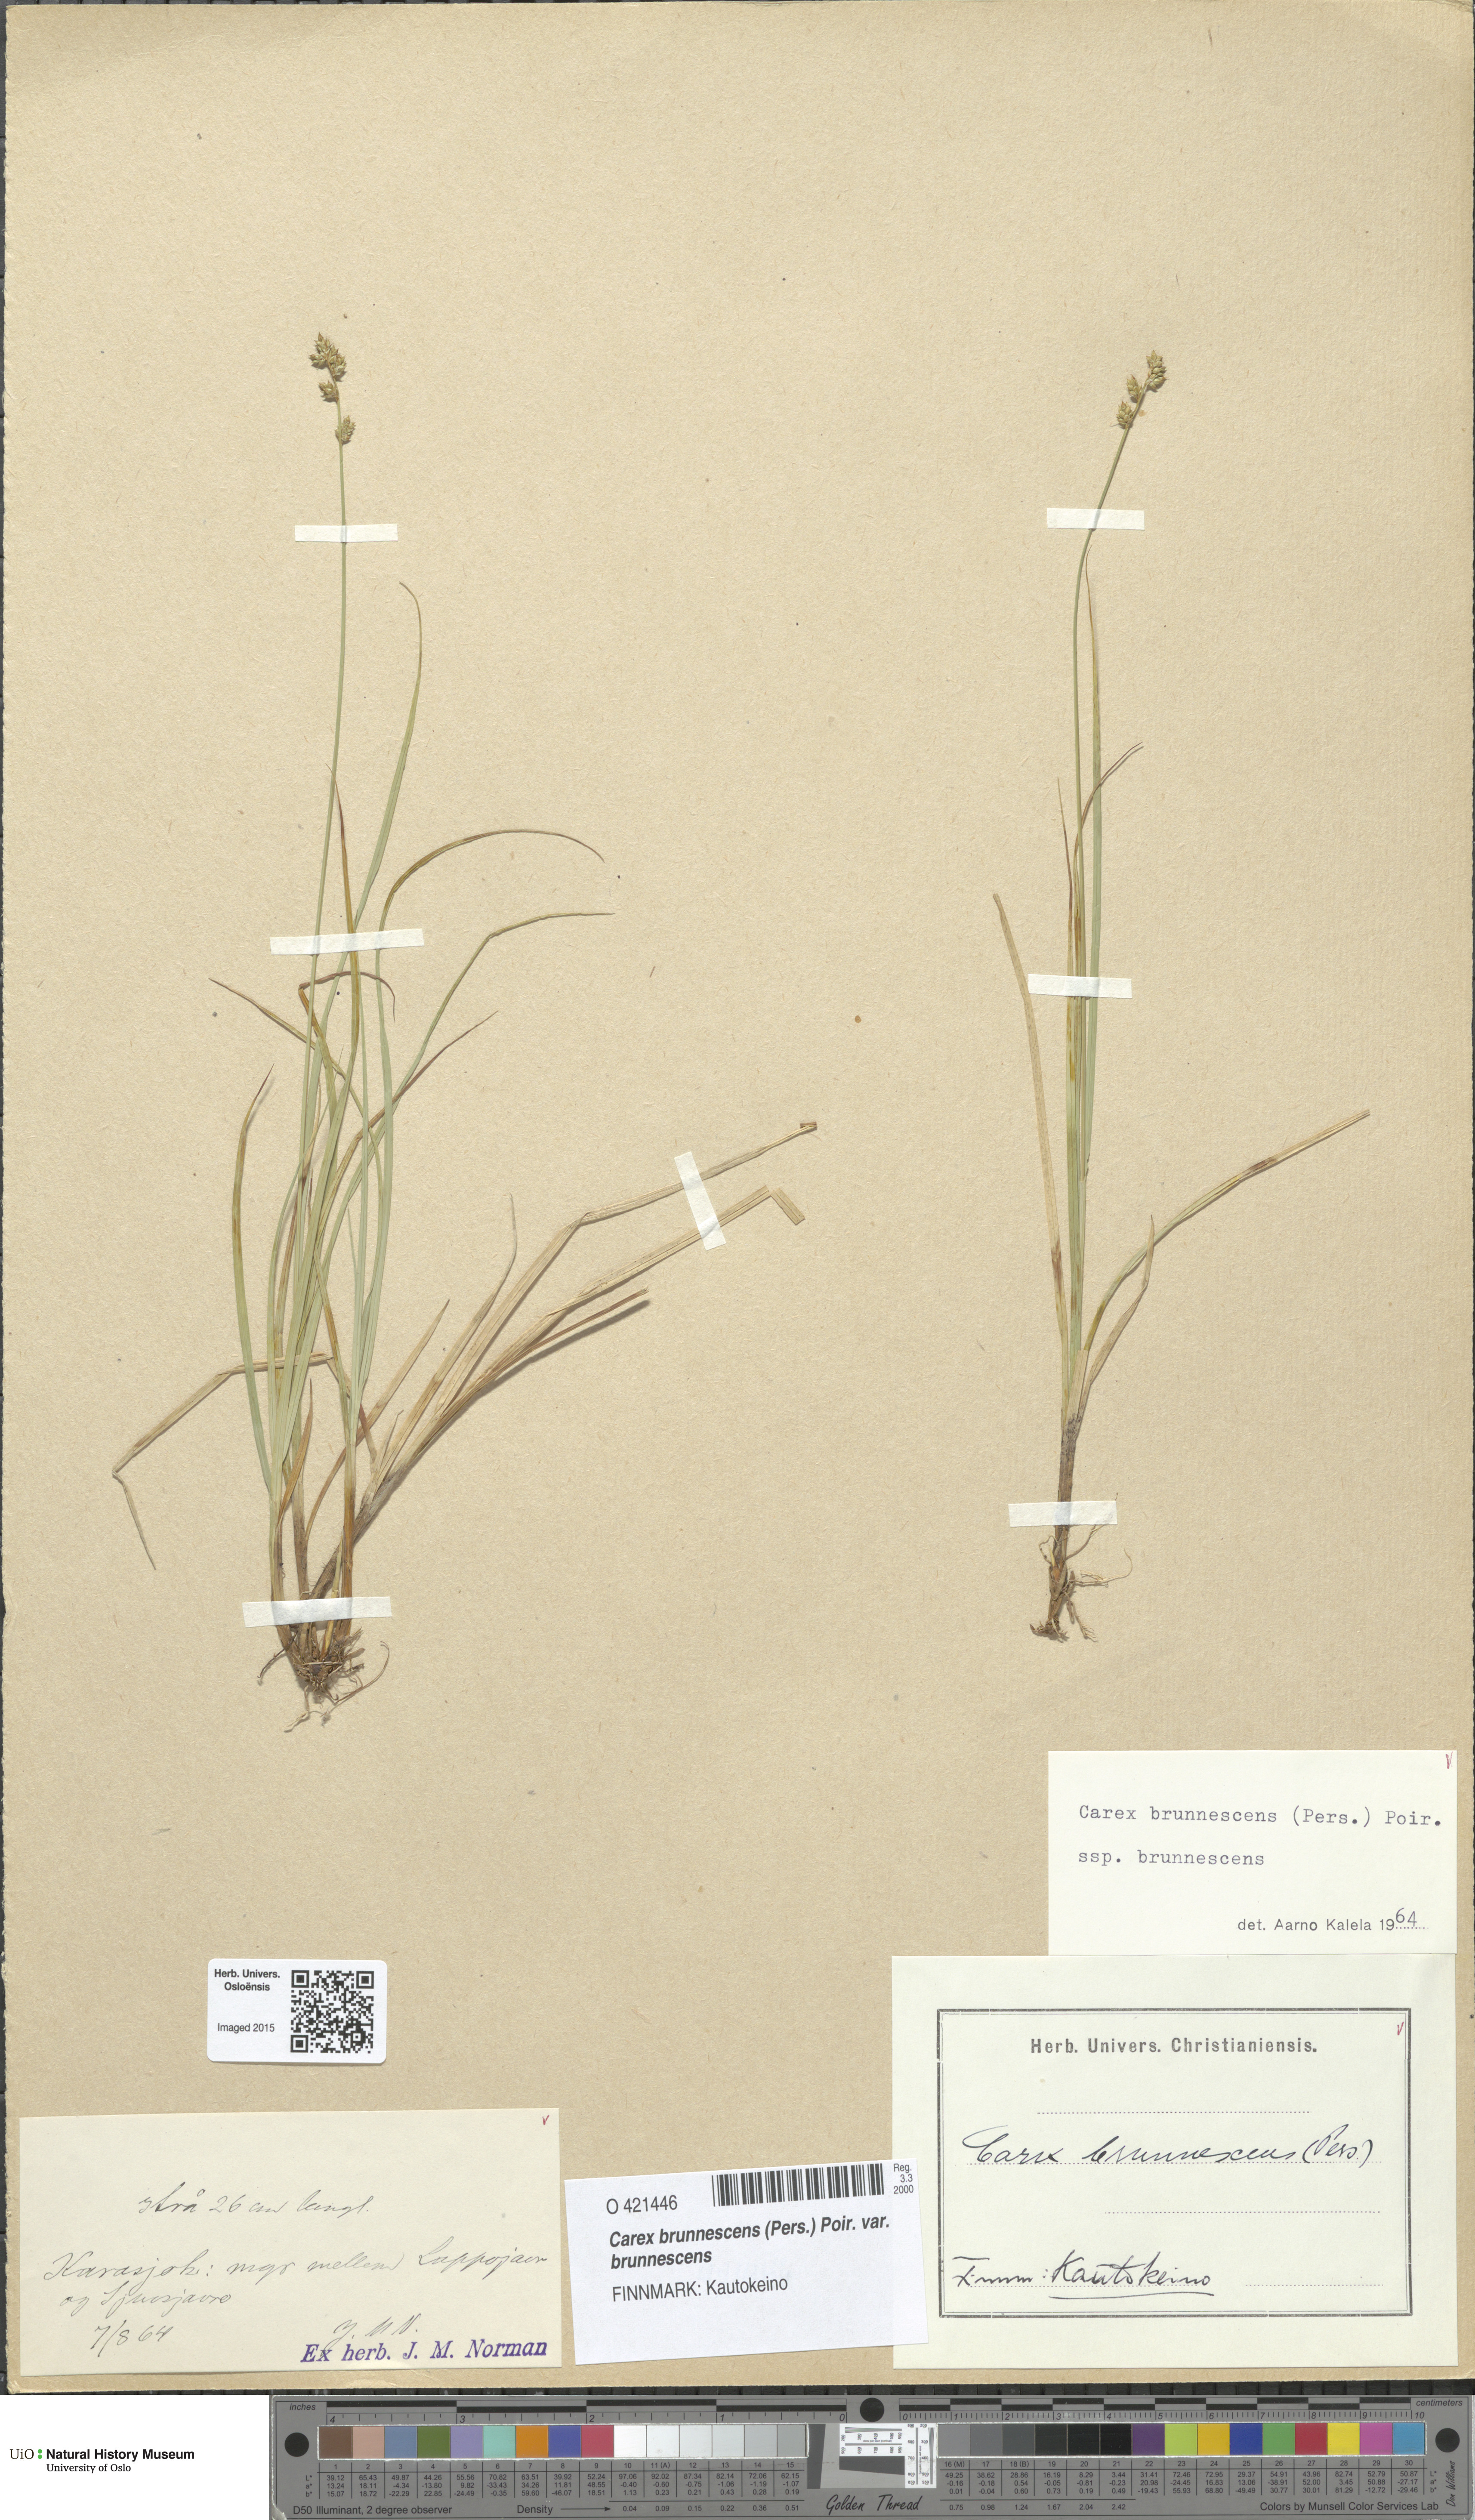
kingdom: Plantae
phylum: Tracheophyta
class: Liliopsida
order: Poales
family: Cyperaceae
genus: Carex
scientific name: Carex brunnescens
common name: Brown sedge
